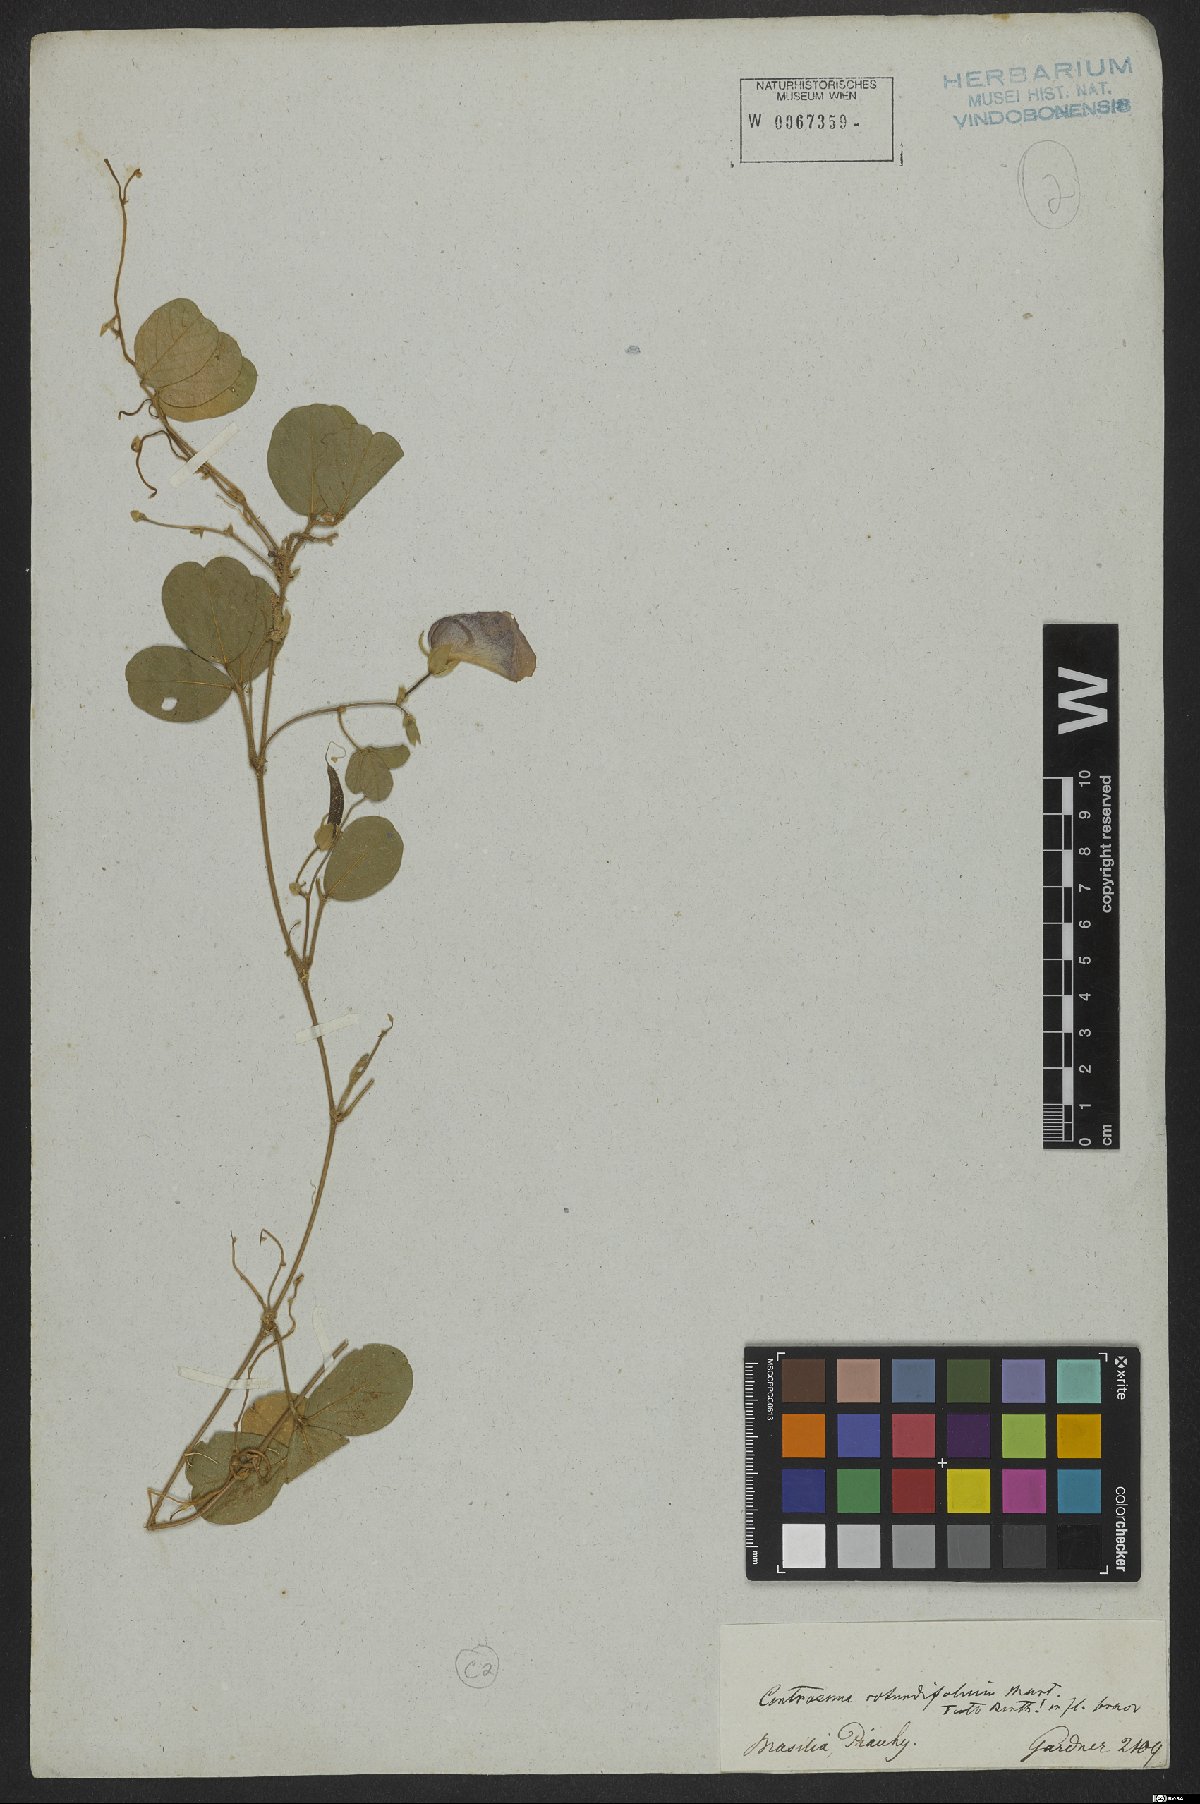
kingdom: Plantae
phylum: Tracheophyta
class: Magnoliopsida
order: Fabales
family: Fabaceae
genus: Centrosema
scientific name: Centrosema rotundifolium
